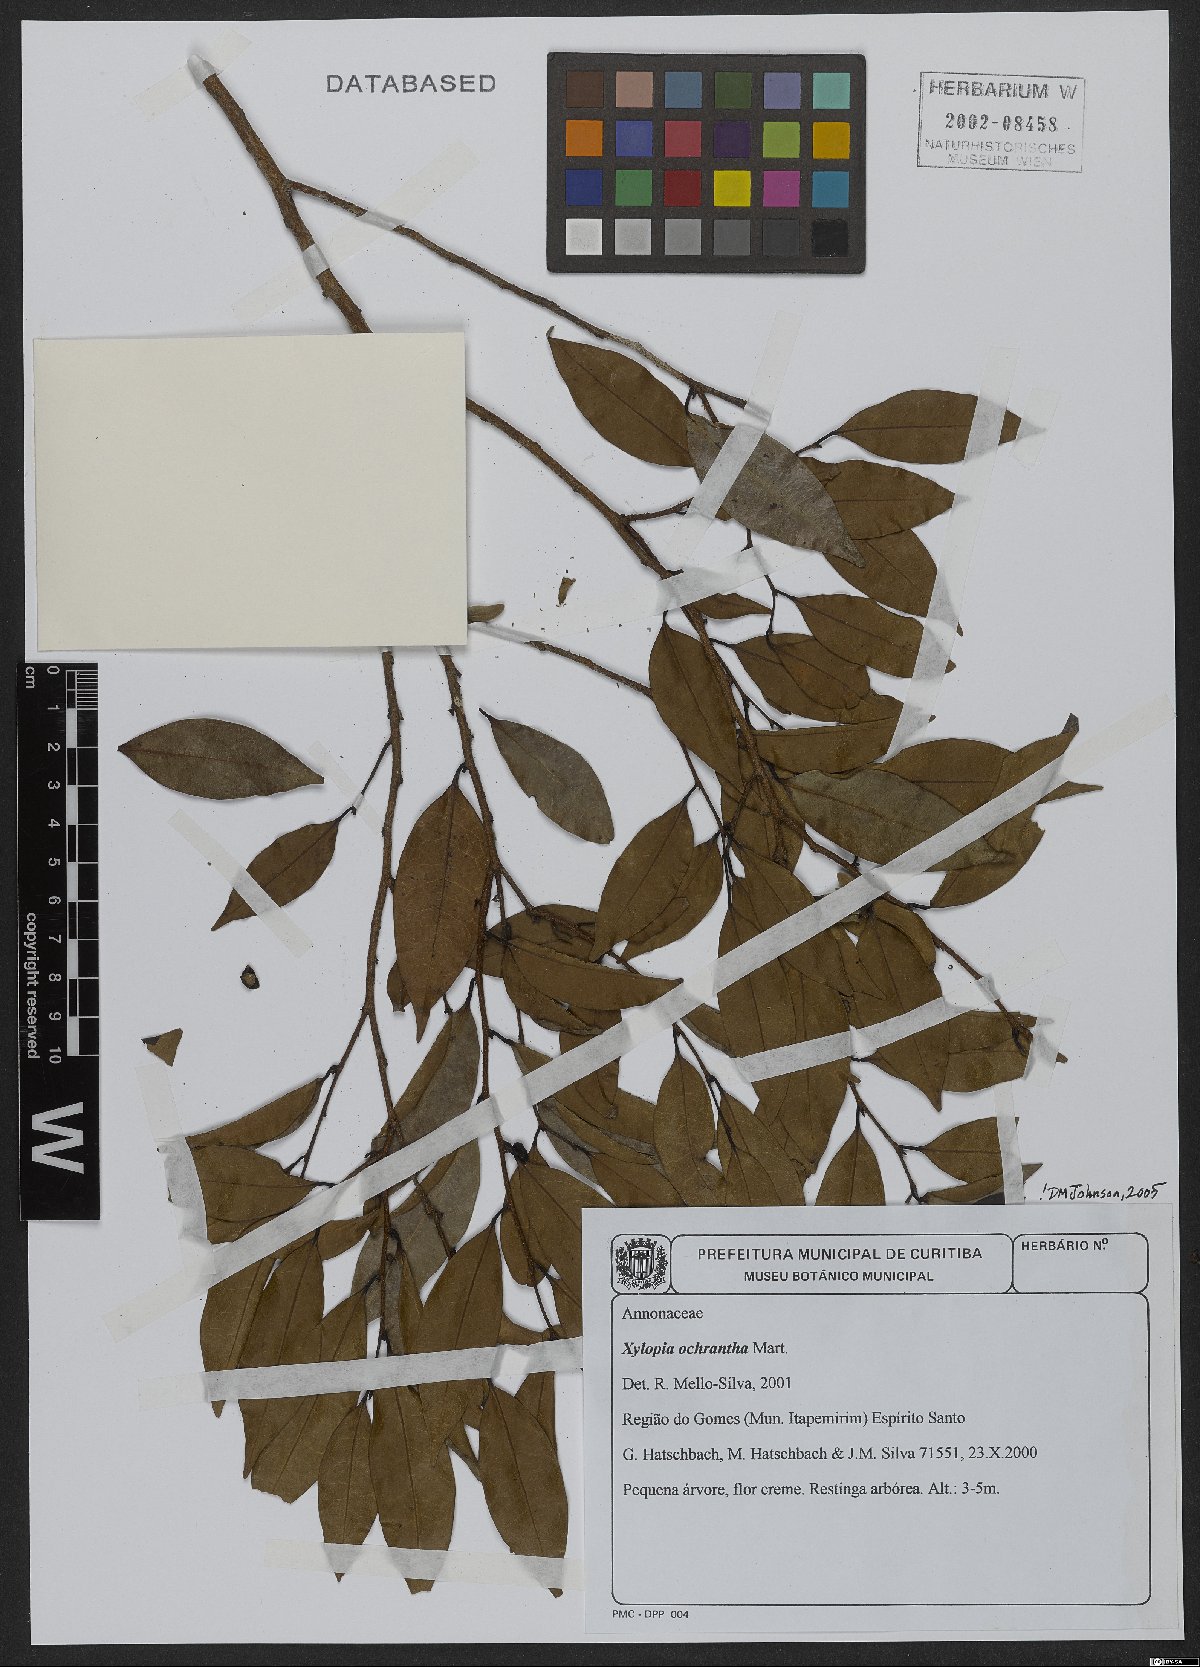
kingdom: Plantae
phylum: Tracheophyta
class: Magnoliopsida
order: Magnoliales
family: Annonaceae
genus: Xylopia
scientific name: Xylopia ochrantha
